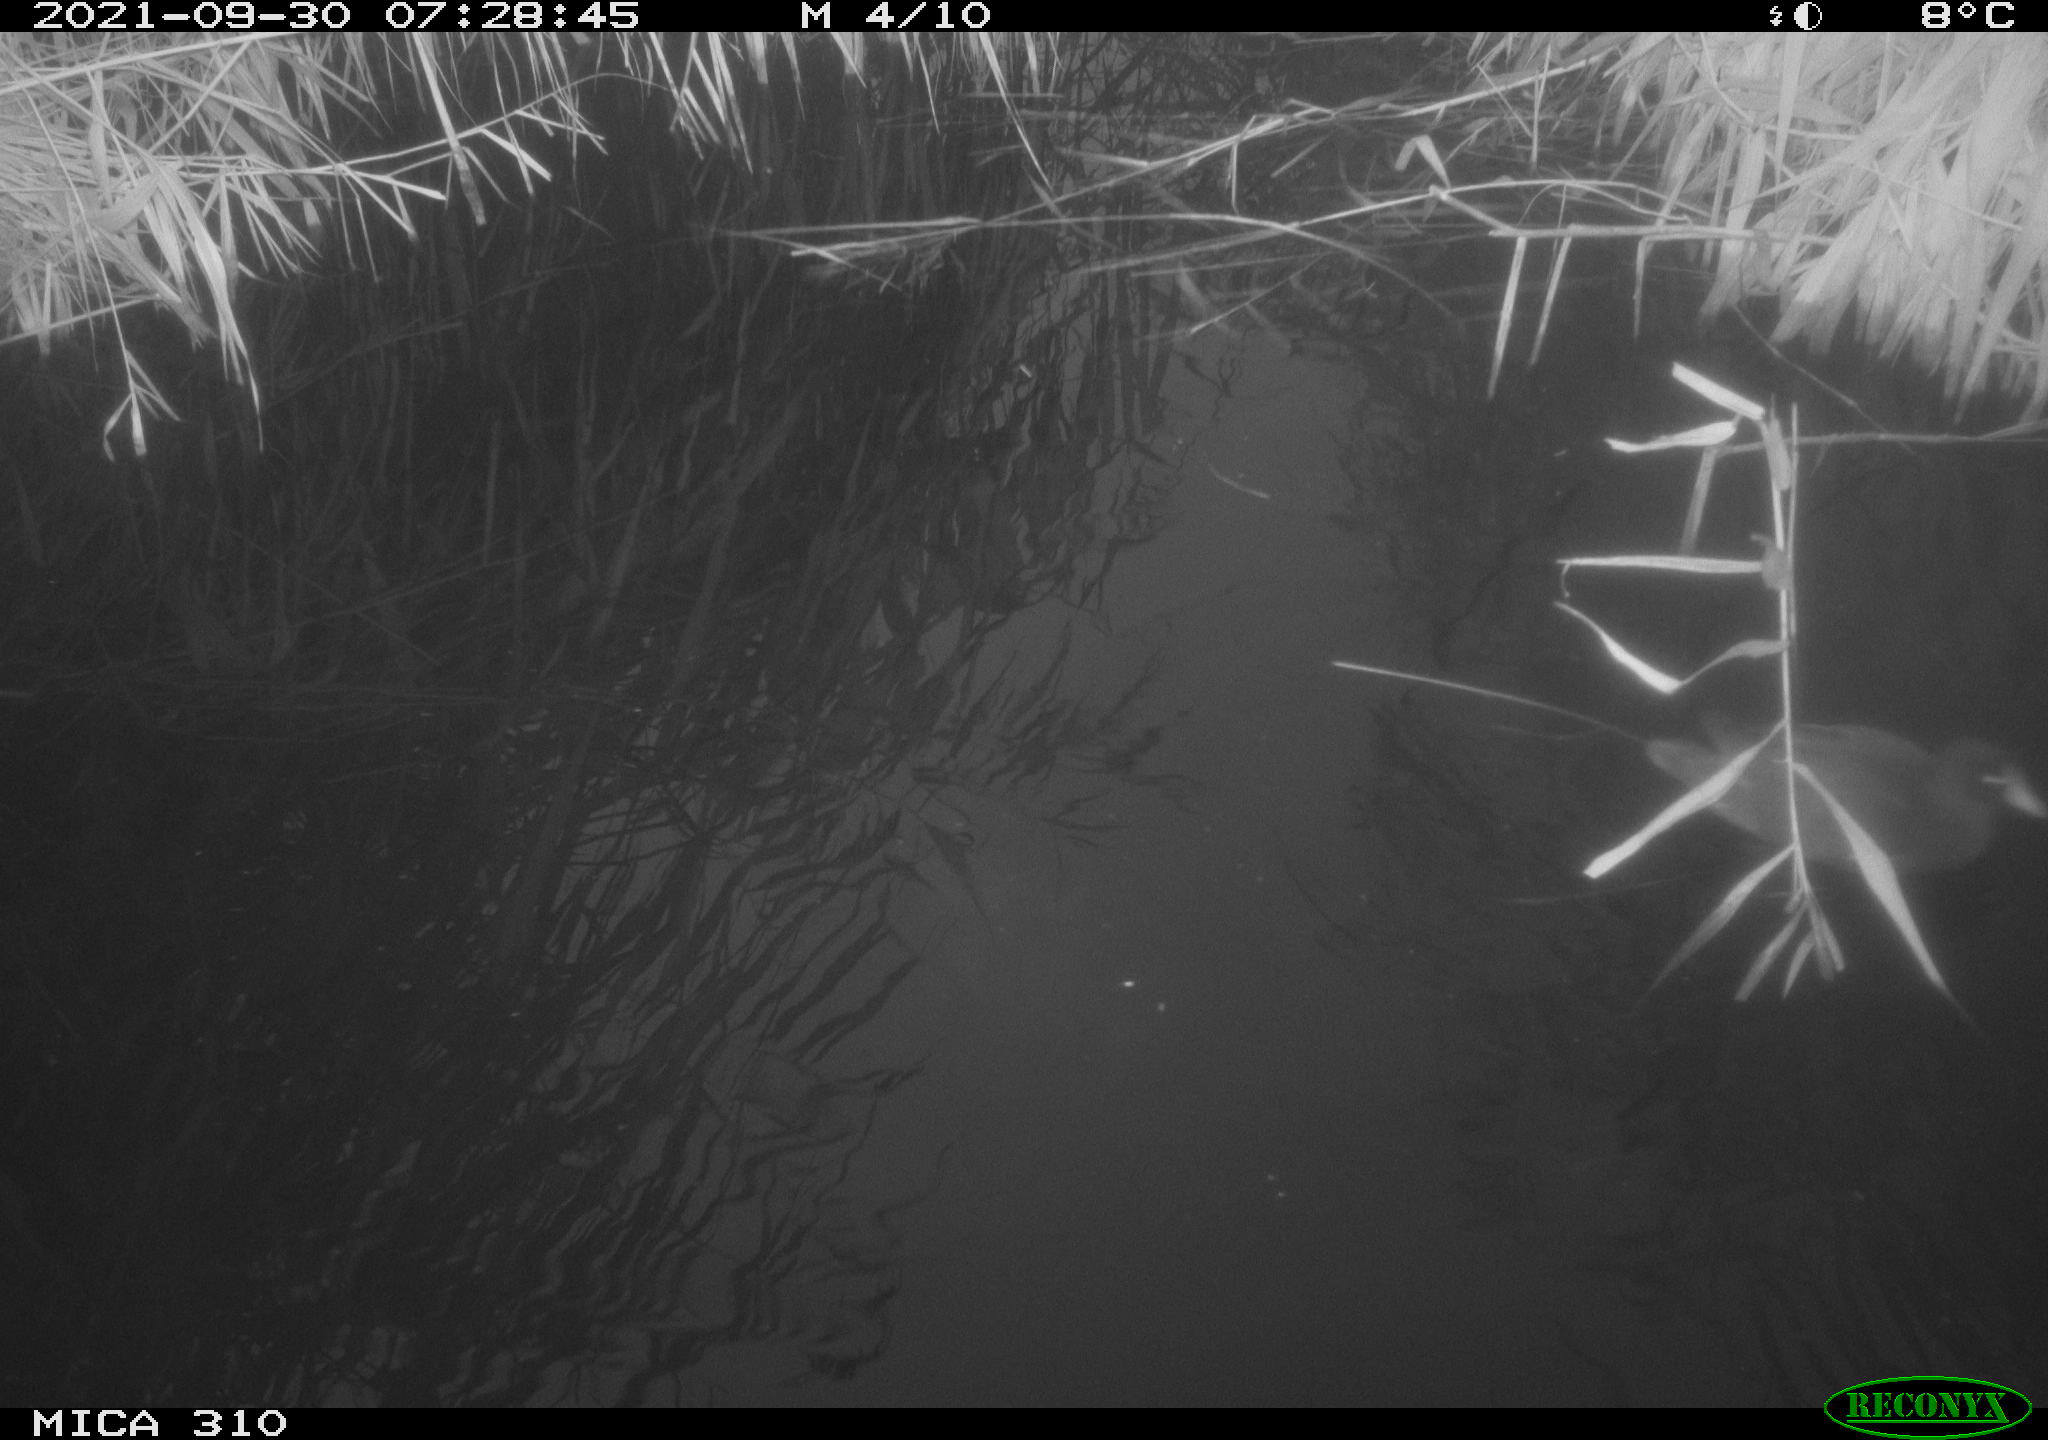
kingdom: Animalia
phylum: Chordata
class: Aves
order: Gruiformes
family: Rallidae
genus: Gallinula
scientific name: Gallinula chloropus
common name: Common moorhen
